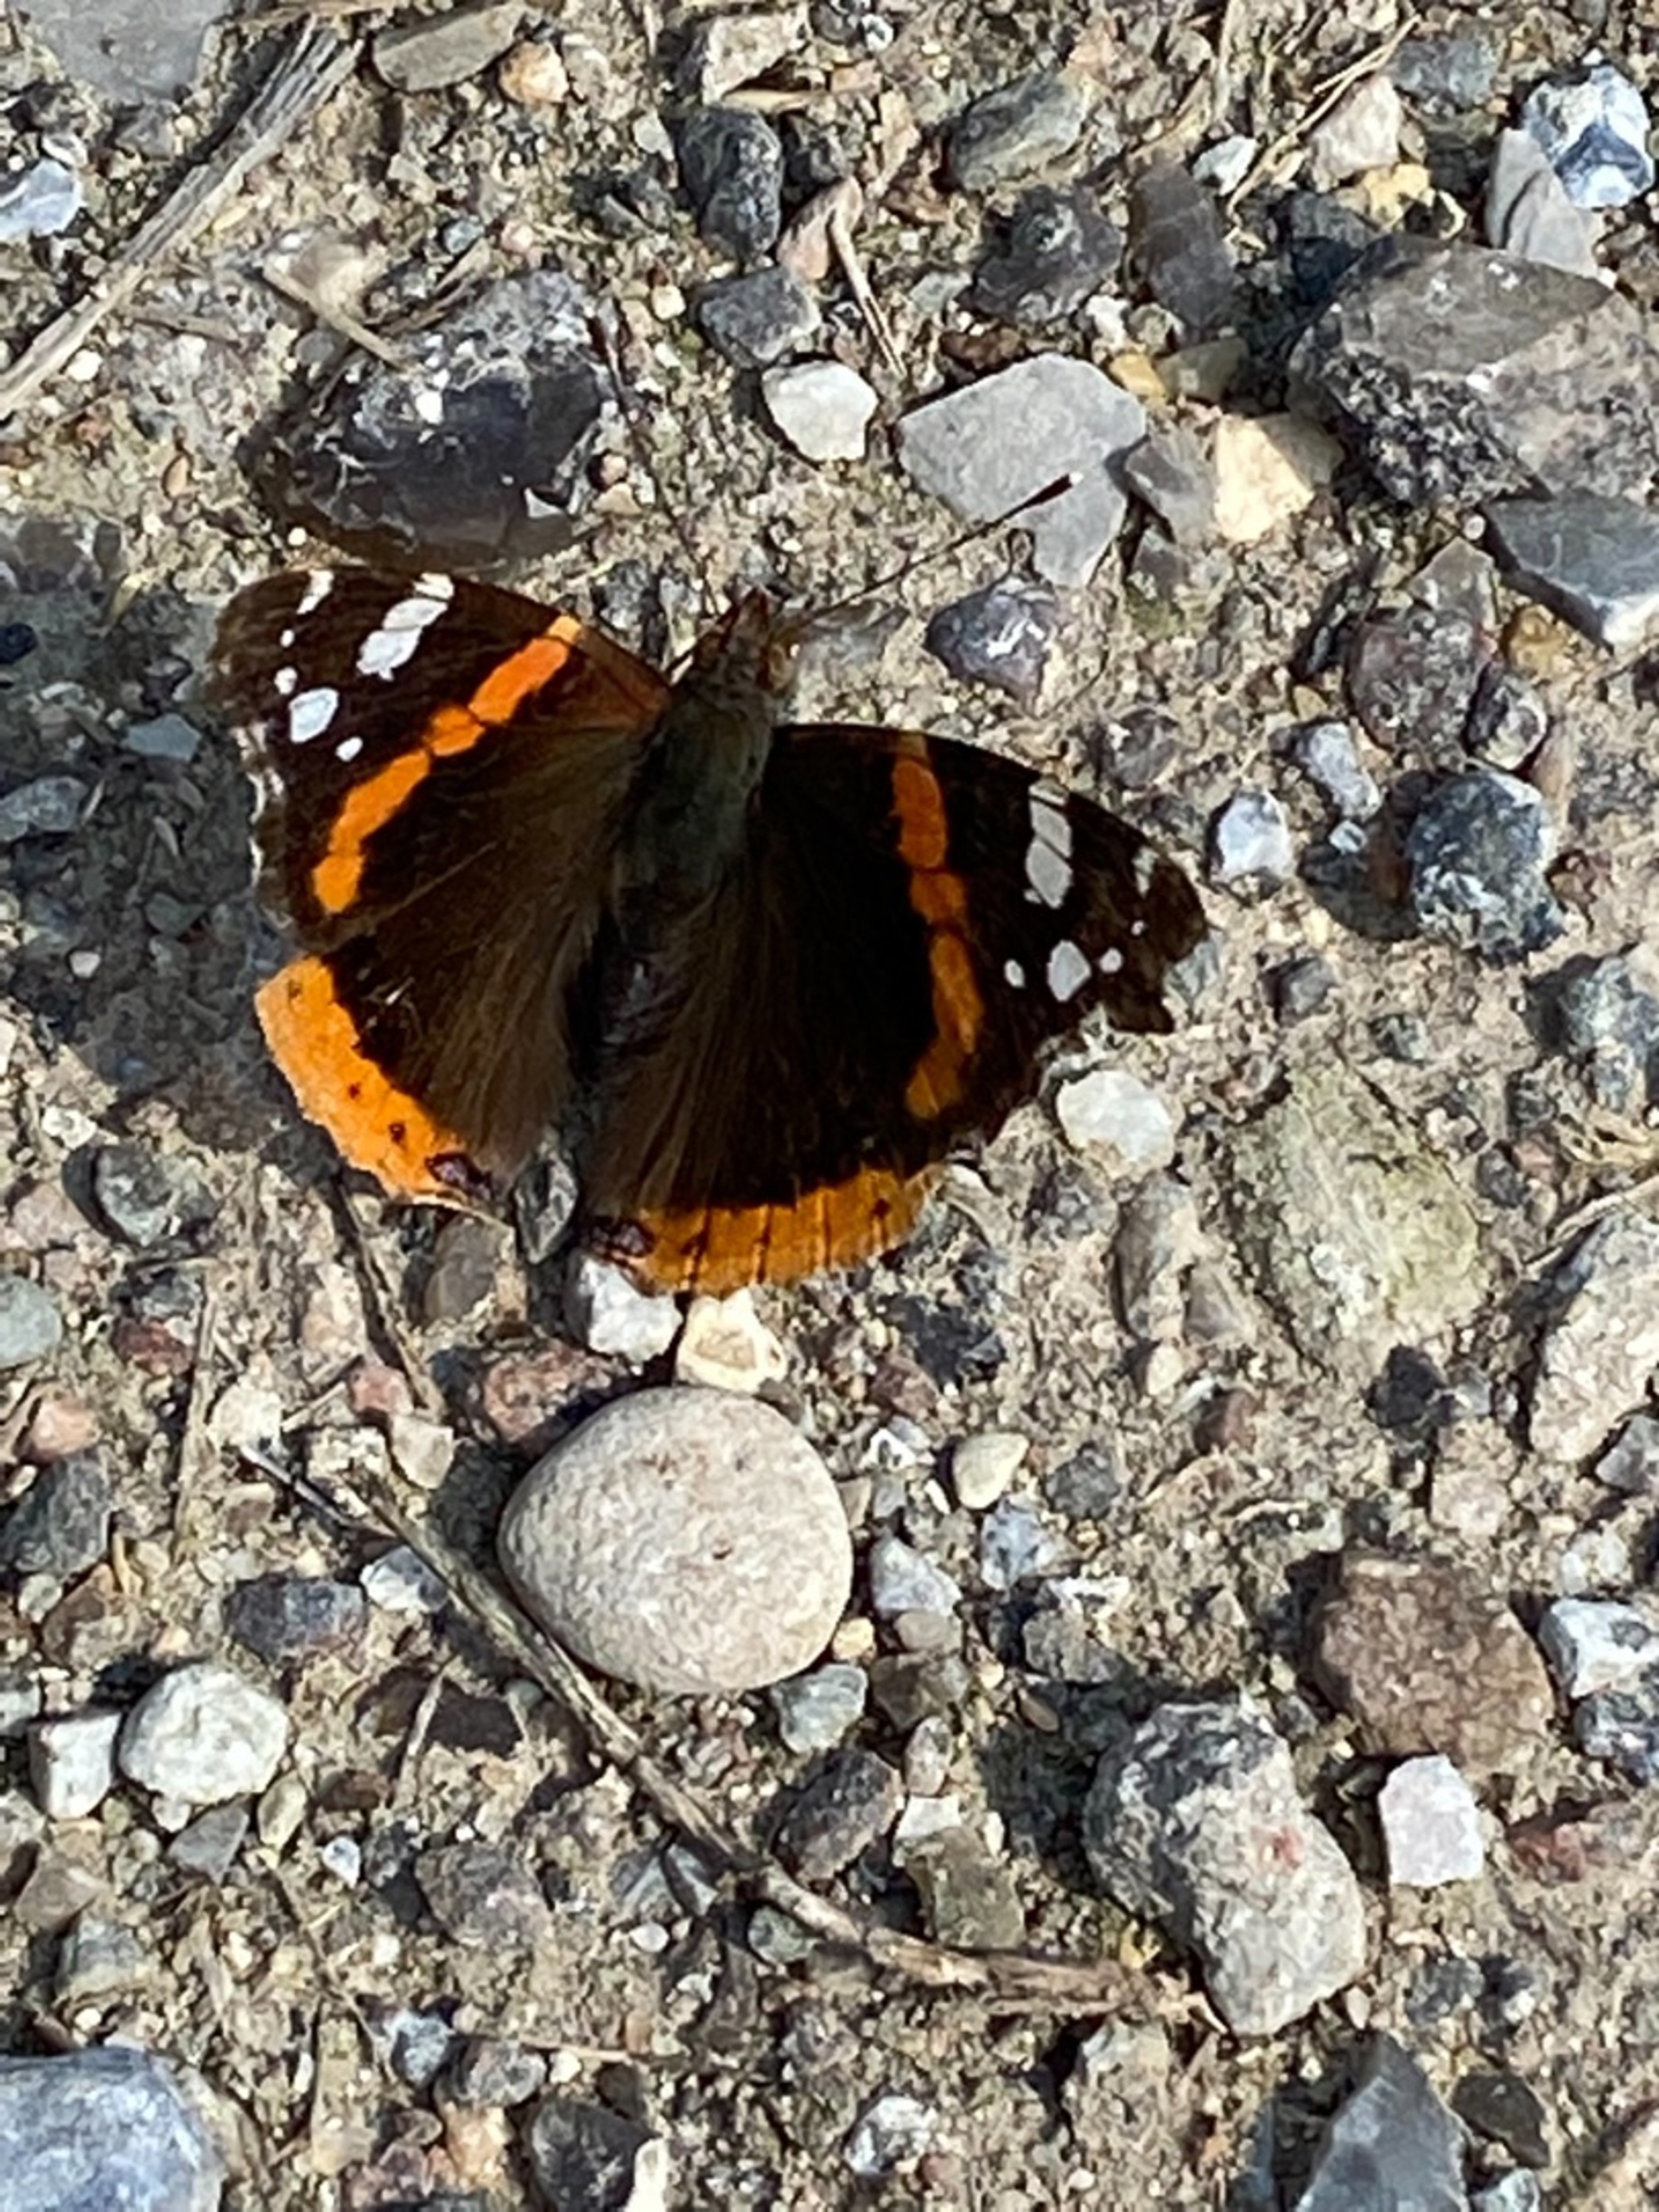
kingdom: Animalia
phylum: Arthropoda
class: Insecta
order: Lepidoptera
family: Nymphalidae
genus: Vanessa
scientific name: Vanessa atalanta
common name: Admiral
